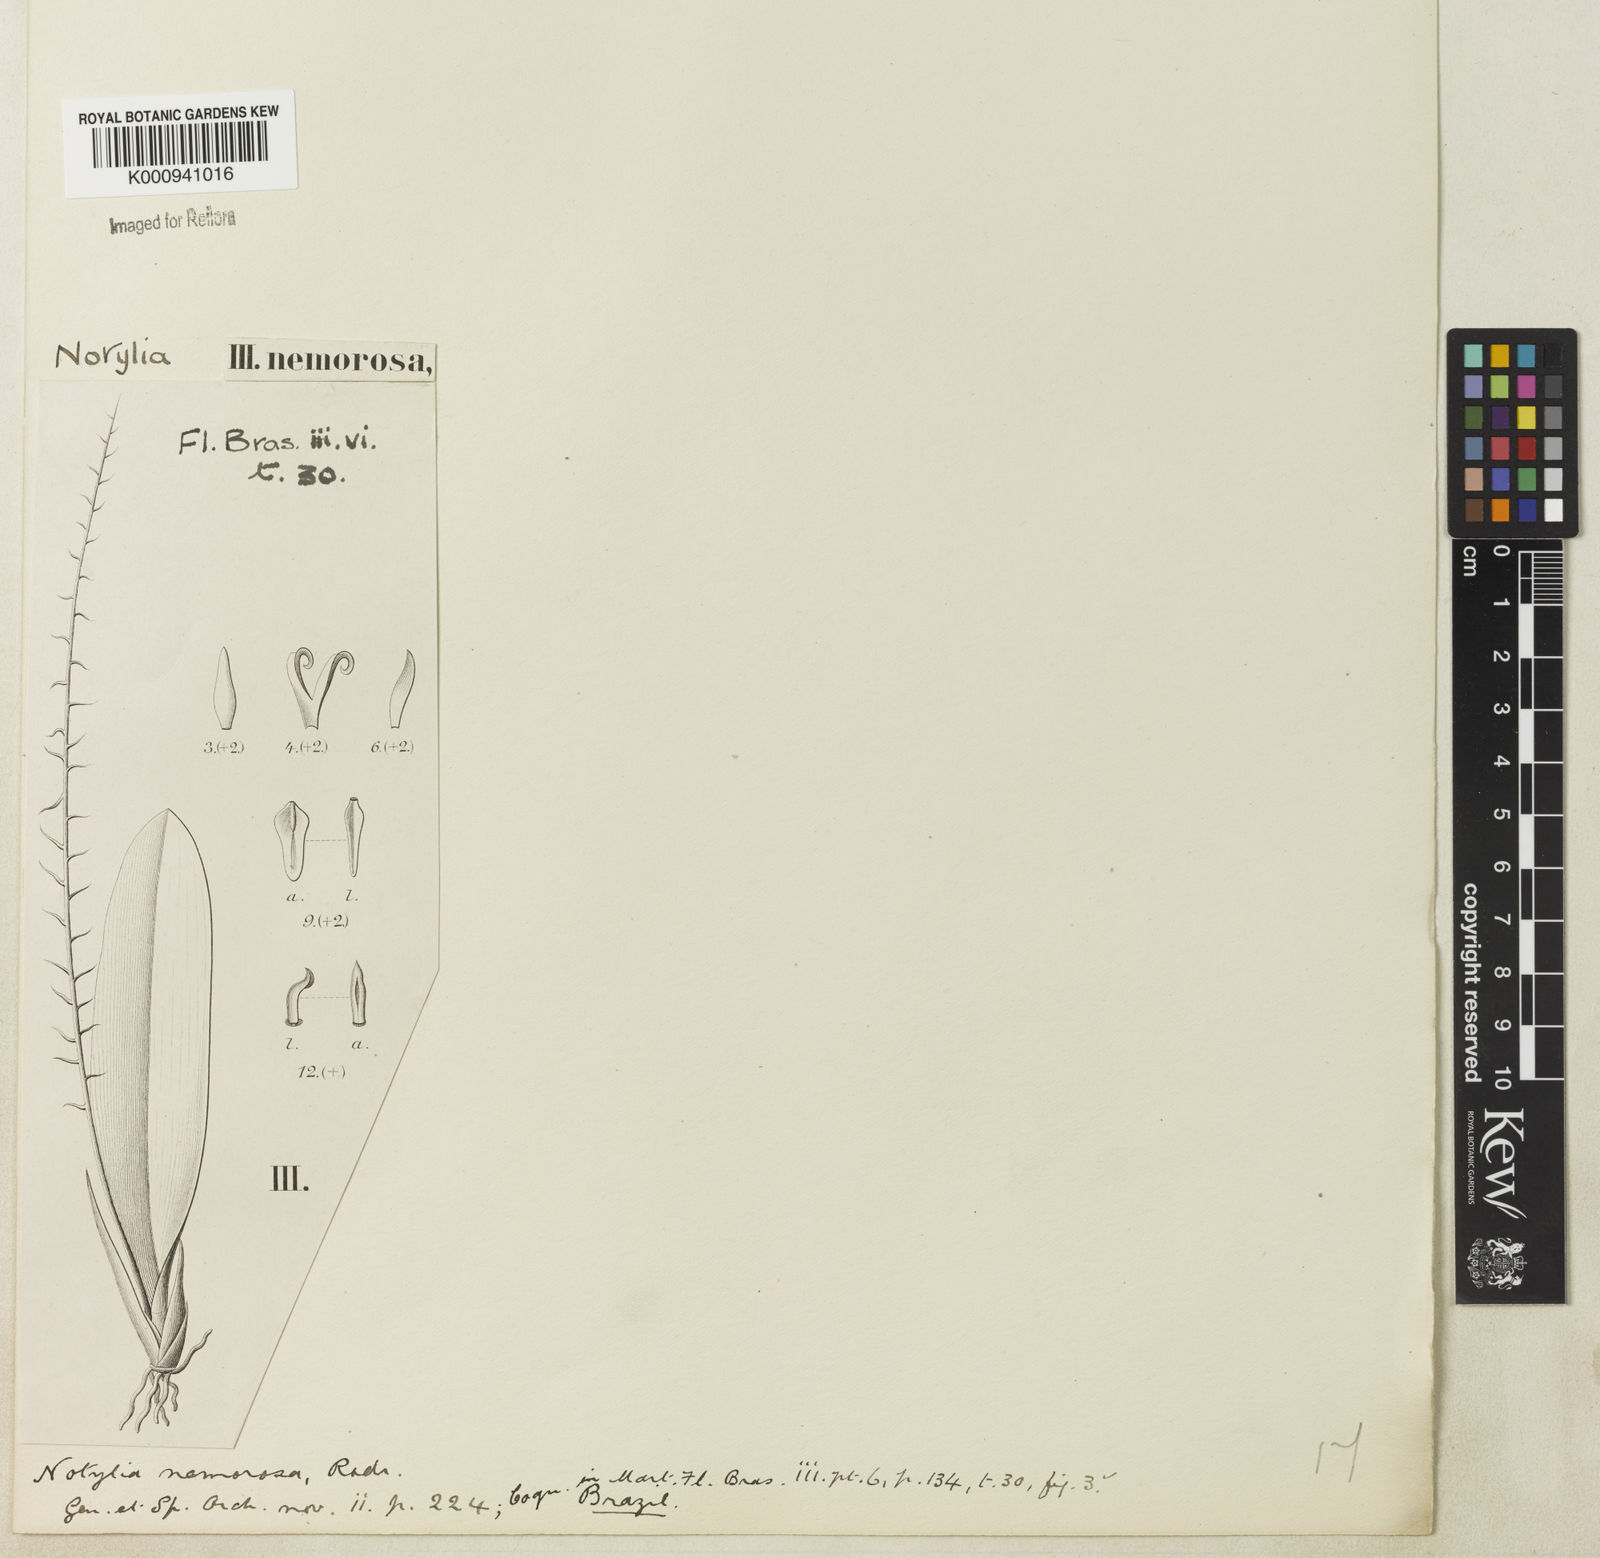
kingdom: Plantae
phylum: Tracheophyta
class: Liliopsida
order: Asparagales
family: Orchidaceae
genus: Notylia
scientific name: Notylia nemorosa
